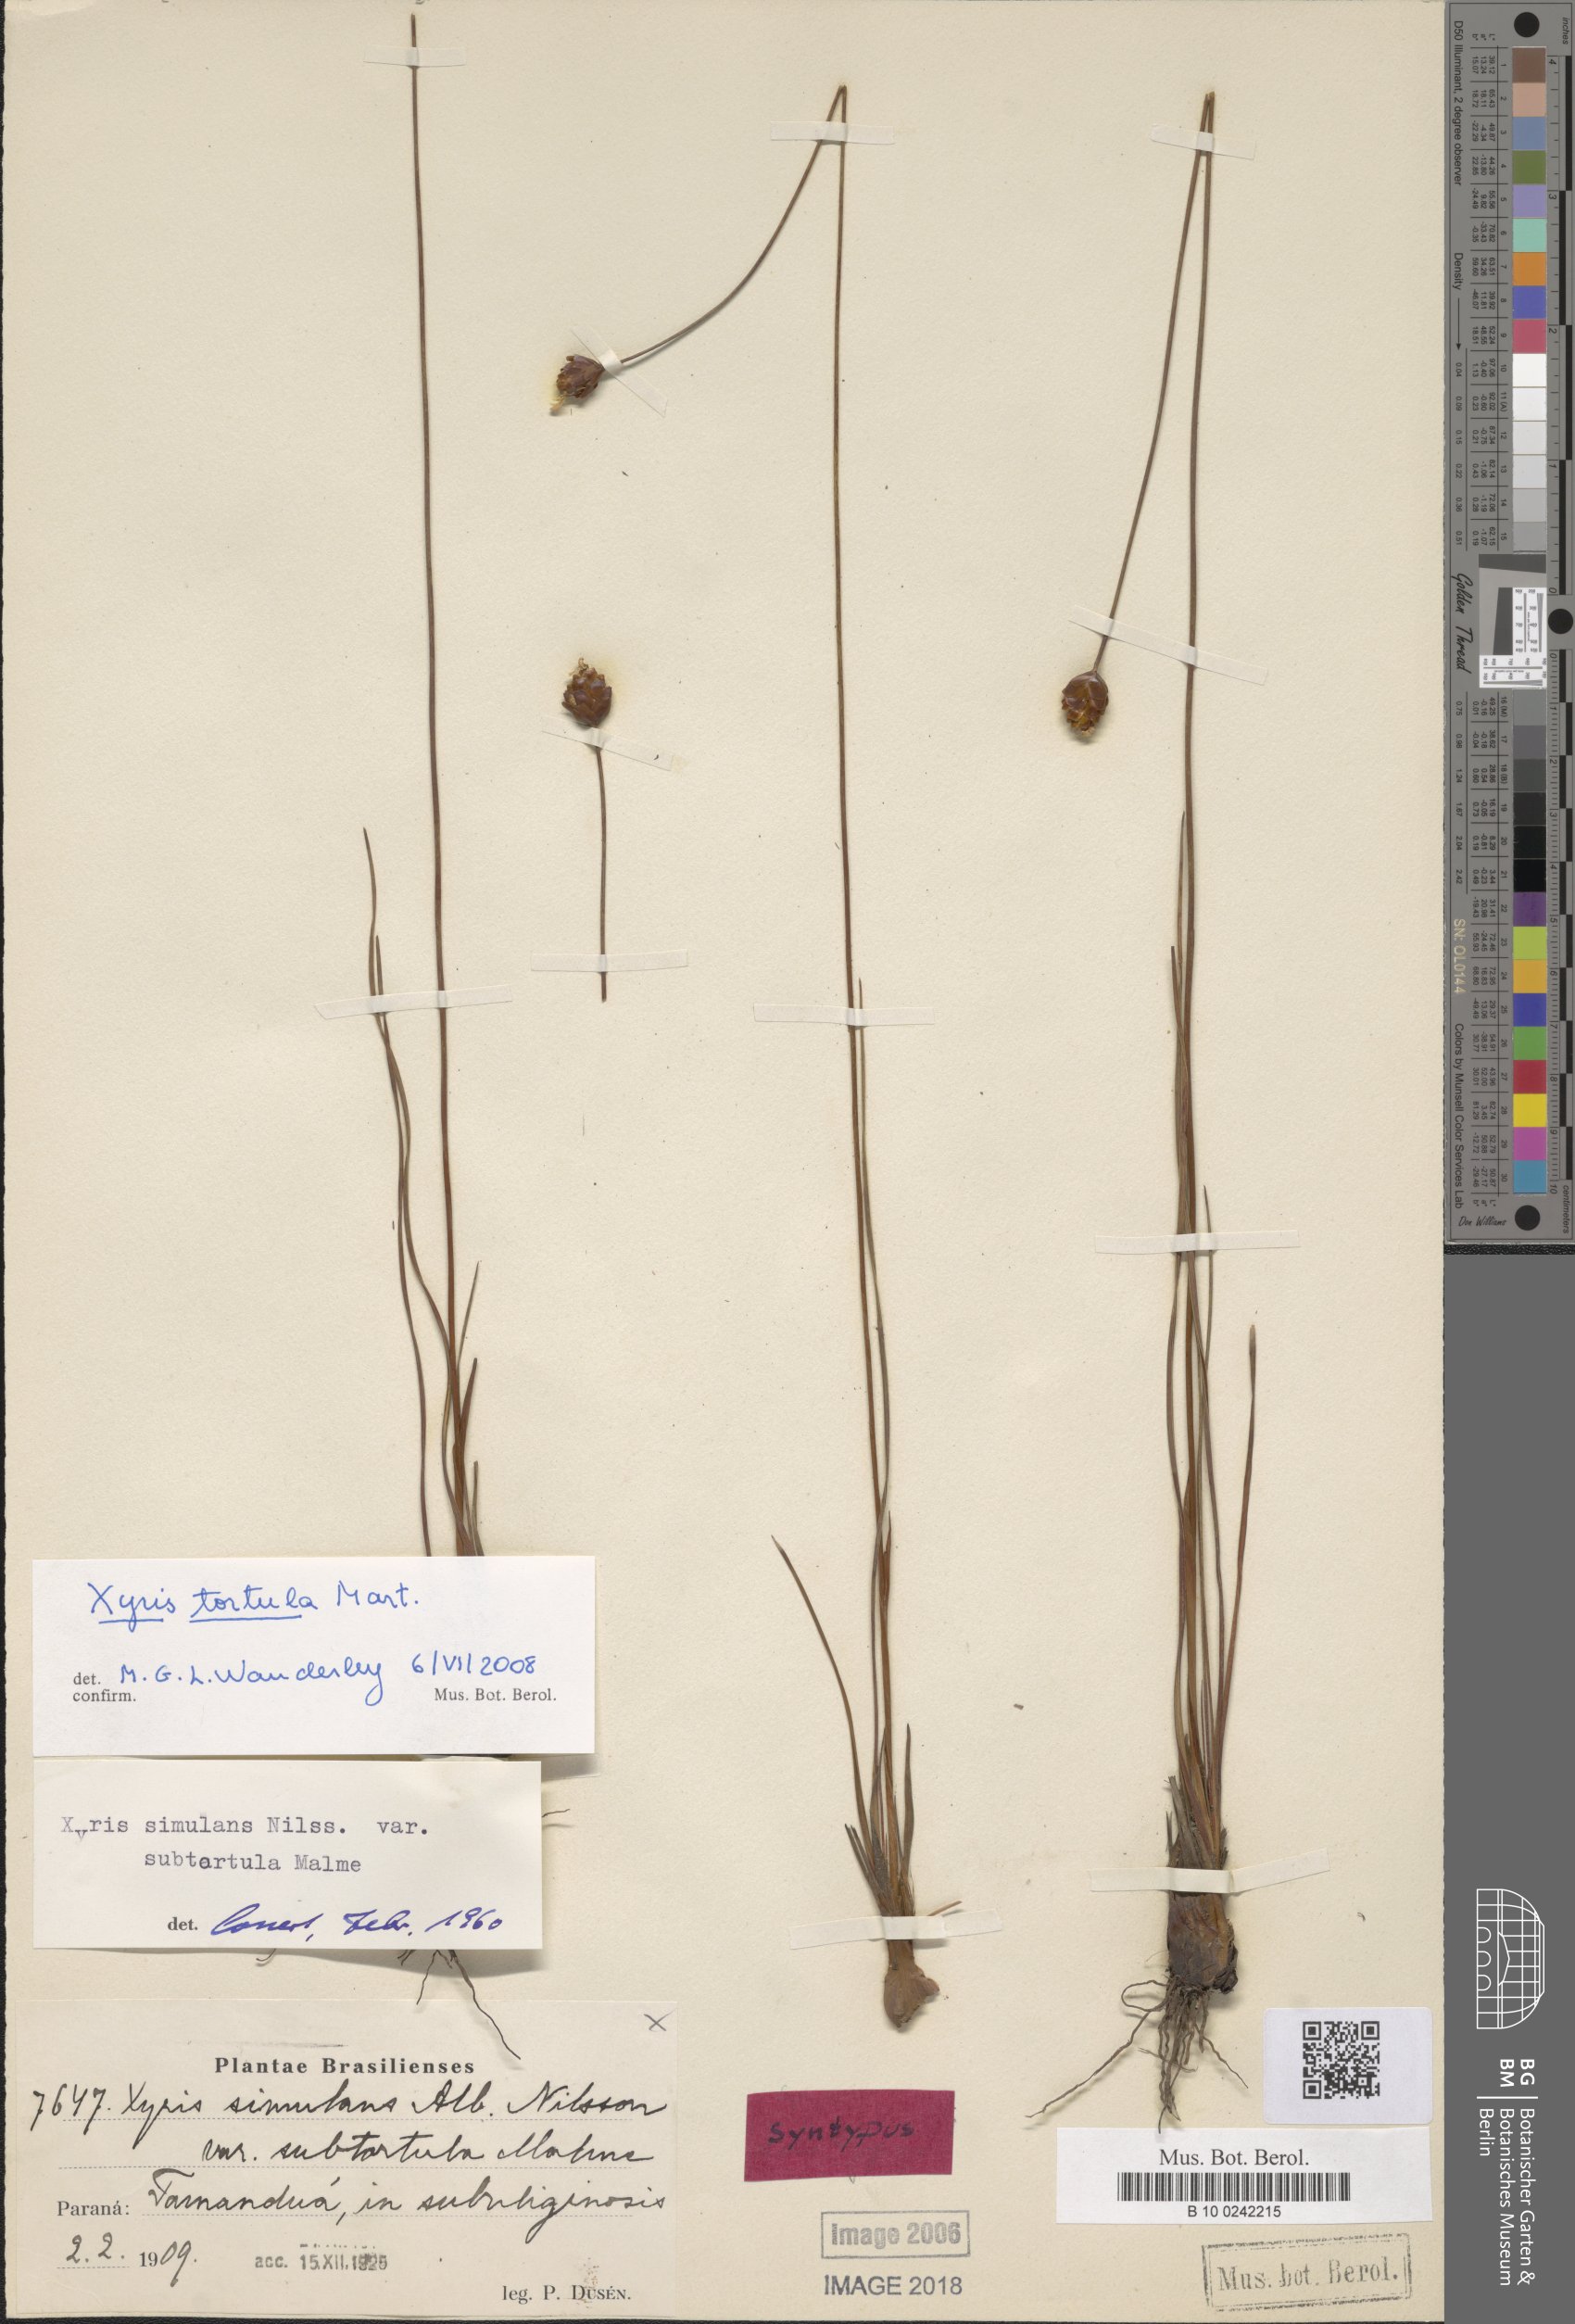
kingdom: Plantae
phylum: Tracheophyta
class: Liliopsida
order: Poales
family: Xyridaceae
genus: Xyris
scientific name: Xyris tortula
